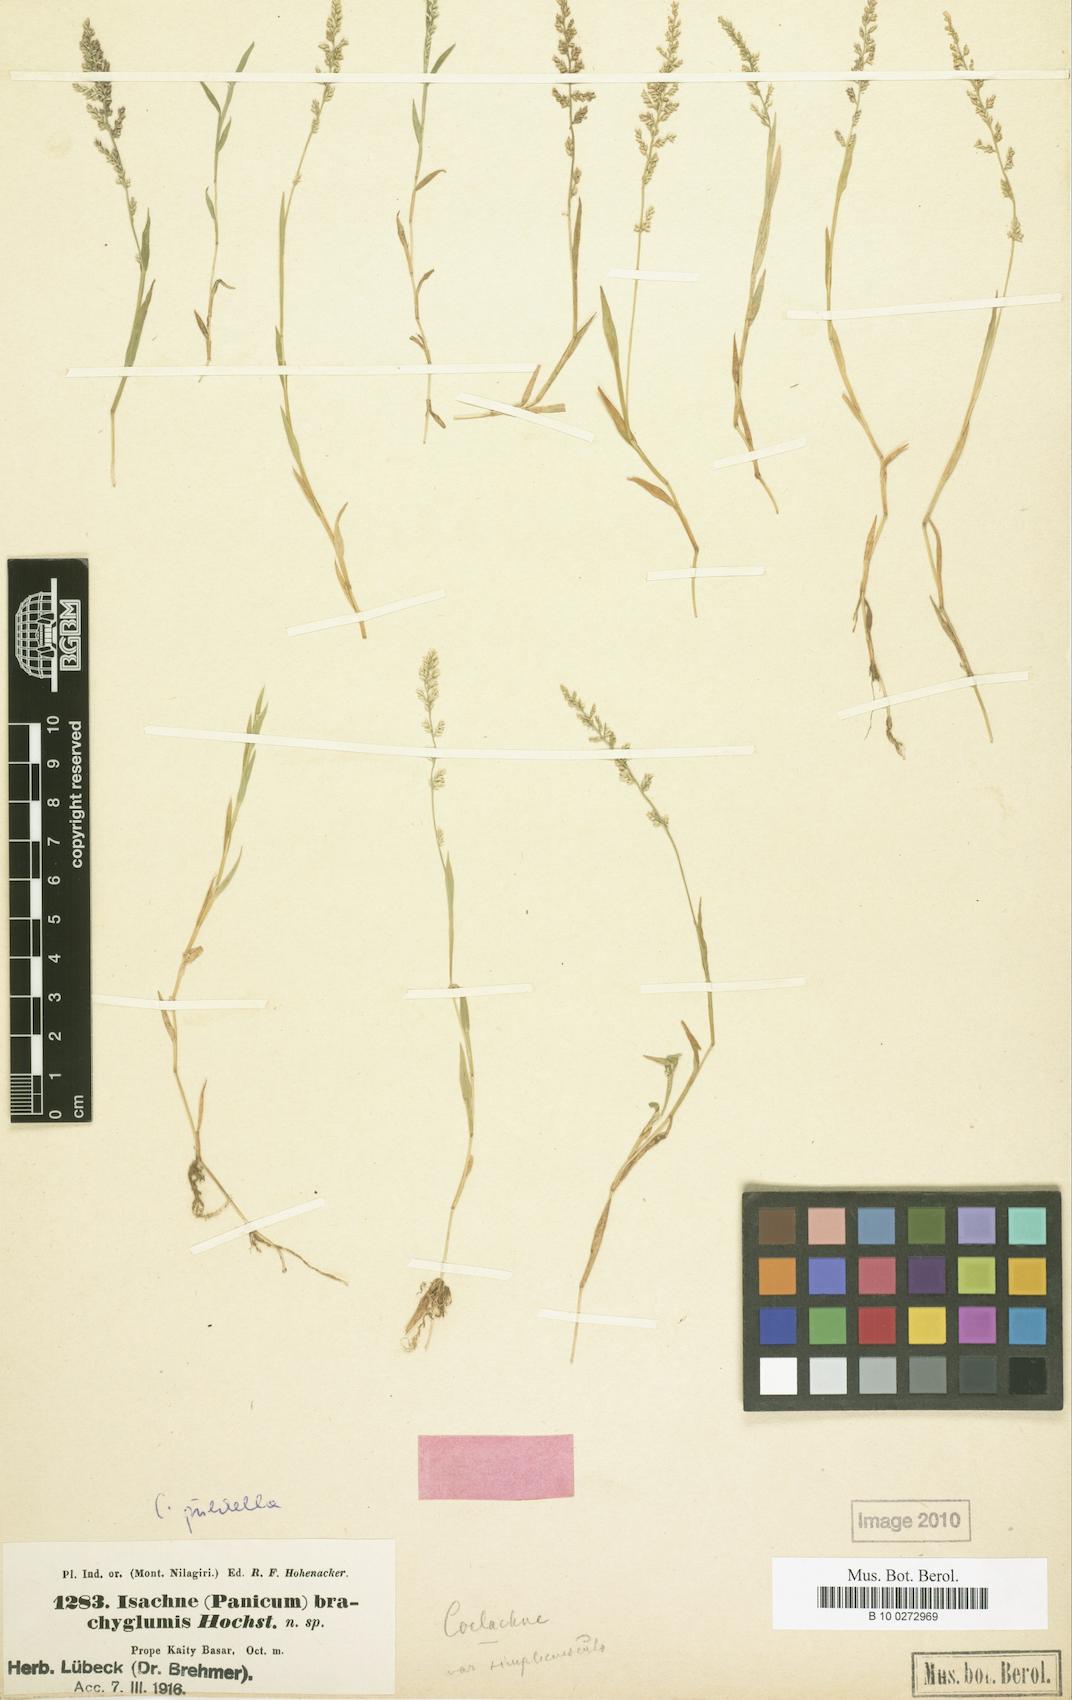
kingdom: Plantae
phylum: Tracheophyta
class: Liliopsida
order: Poales
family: Poaceae
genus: Coelachne
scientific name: Coelachne simpliciuscula
